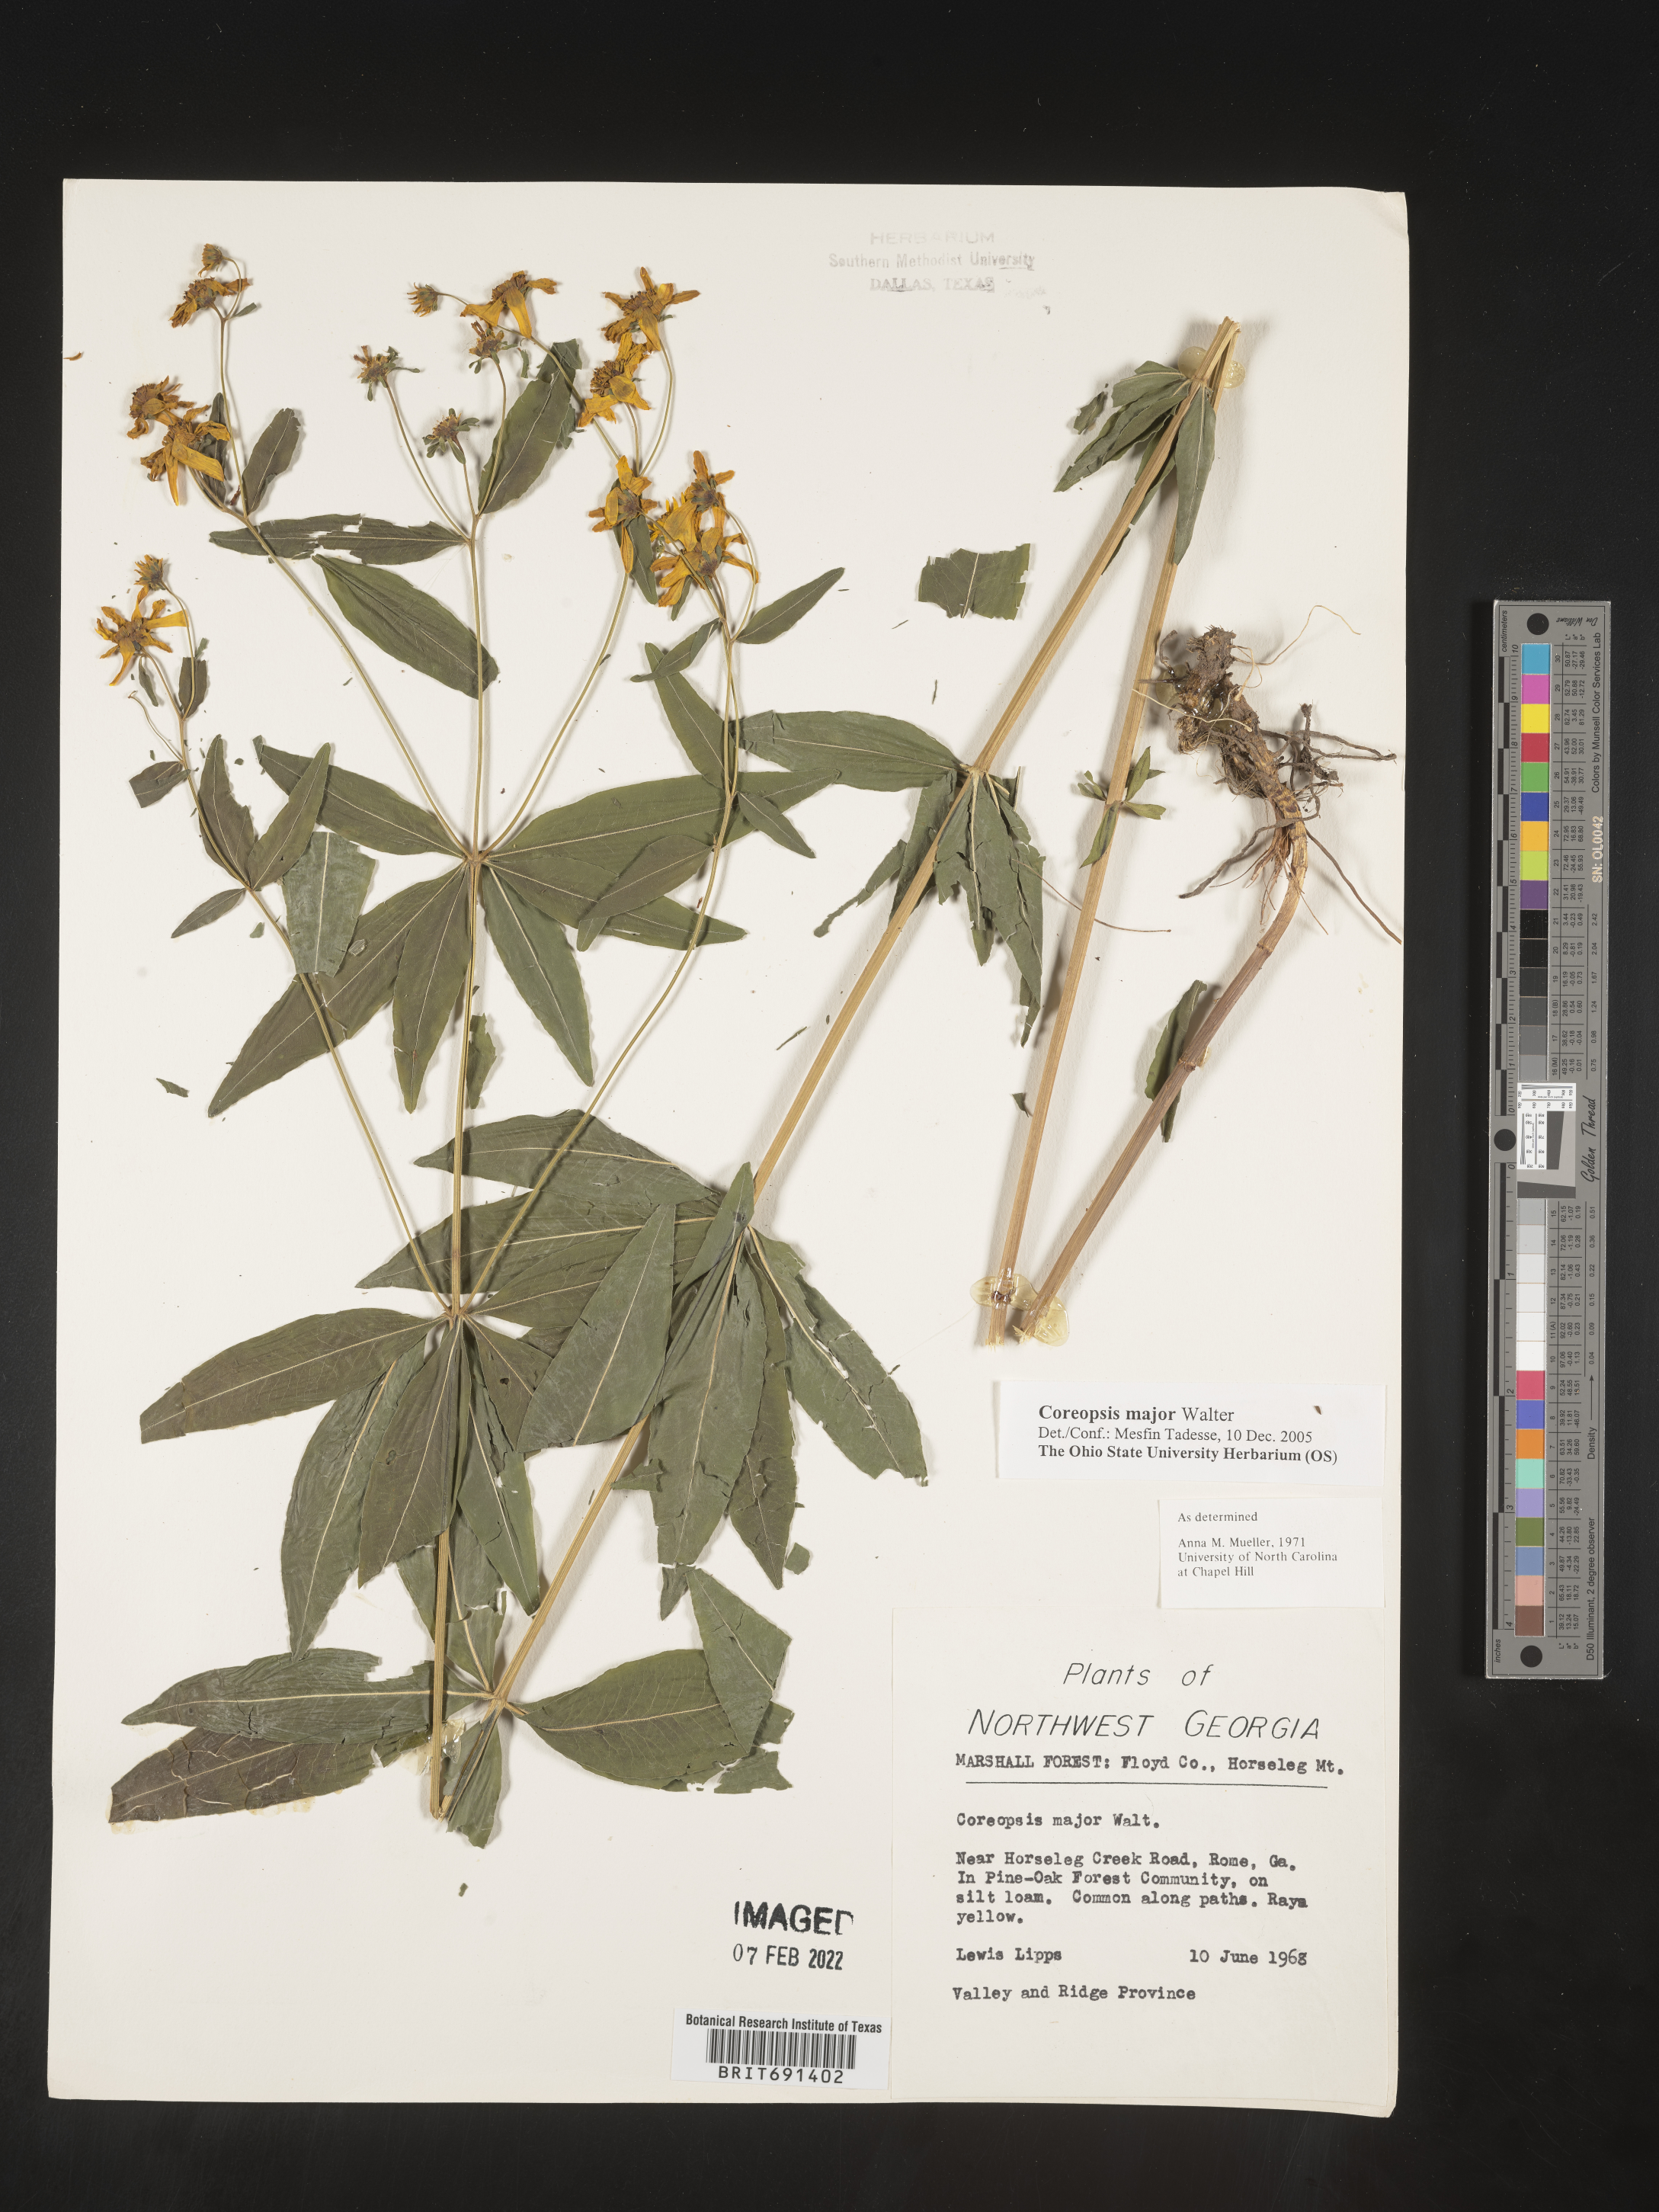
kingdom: Plantae
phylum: Tracheophyta
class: Magnoliopsida
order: Asterales
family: Asteraceae
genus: Coreopsis
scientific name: Coreopsis major
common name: Forest tickseed
